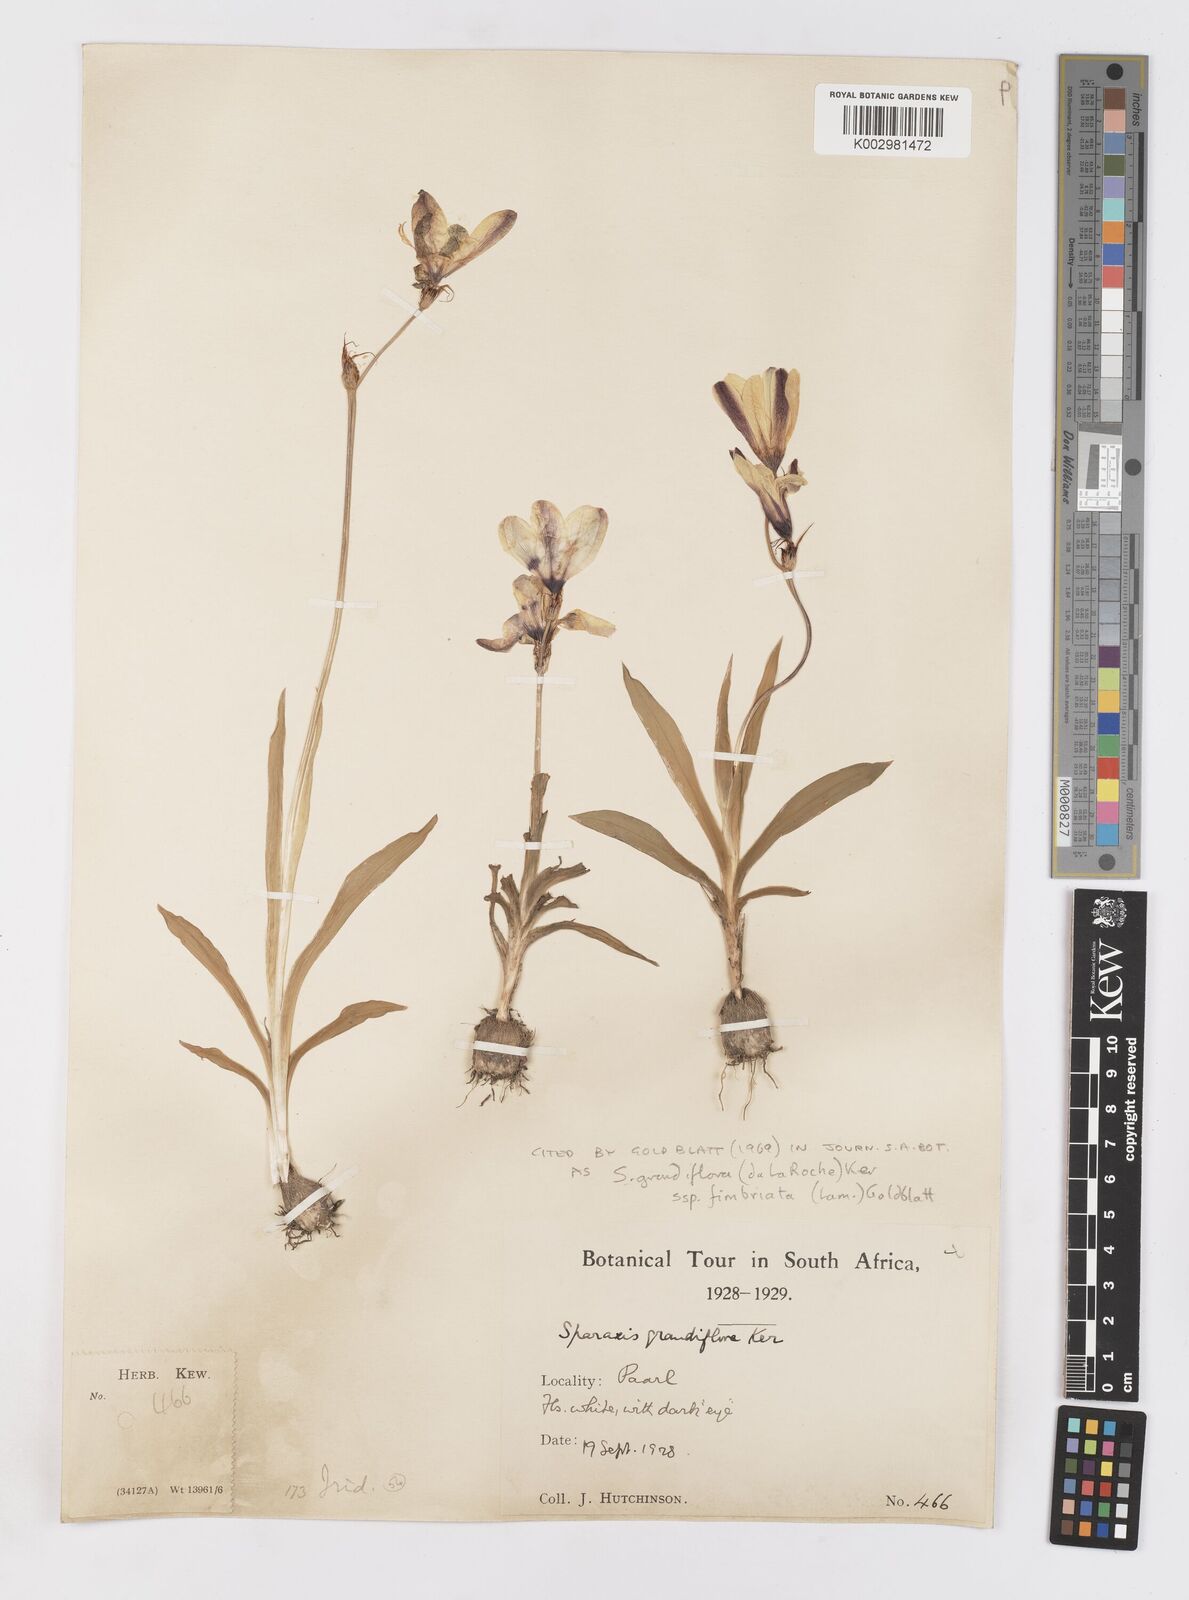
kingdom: Plantae
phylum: Tracheophyta
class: Liliopsida
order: Asparagales
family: Iridaceae
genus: Sparaxis
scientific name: Sparaxis grandiflora
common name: Plain harlequin-flower
